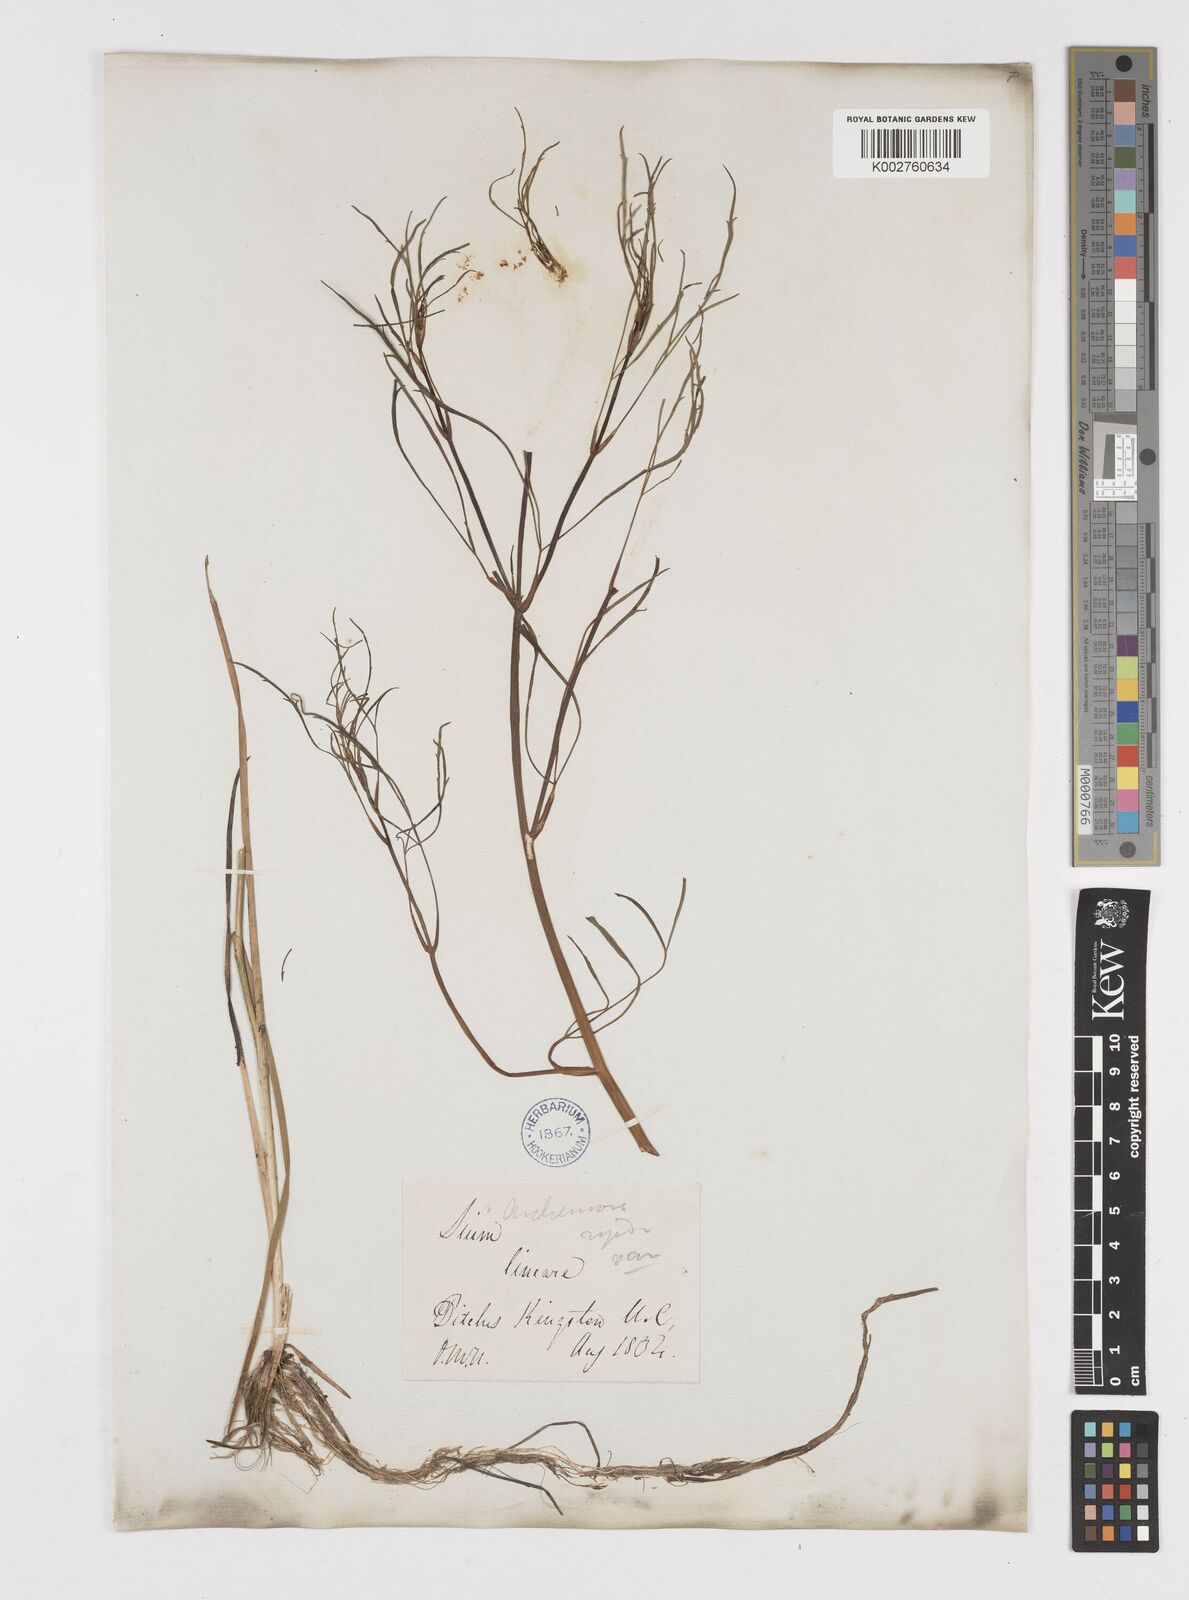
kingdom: Plantae
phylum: Tracheophyta
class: Magnoliopsida
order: Apiales
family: Apiaceae
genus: Cicuta
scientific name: Cicuta bulbifera
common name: Bulb-bearing water-hemlock
